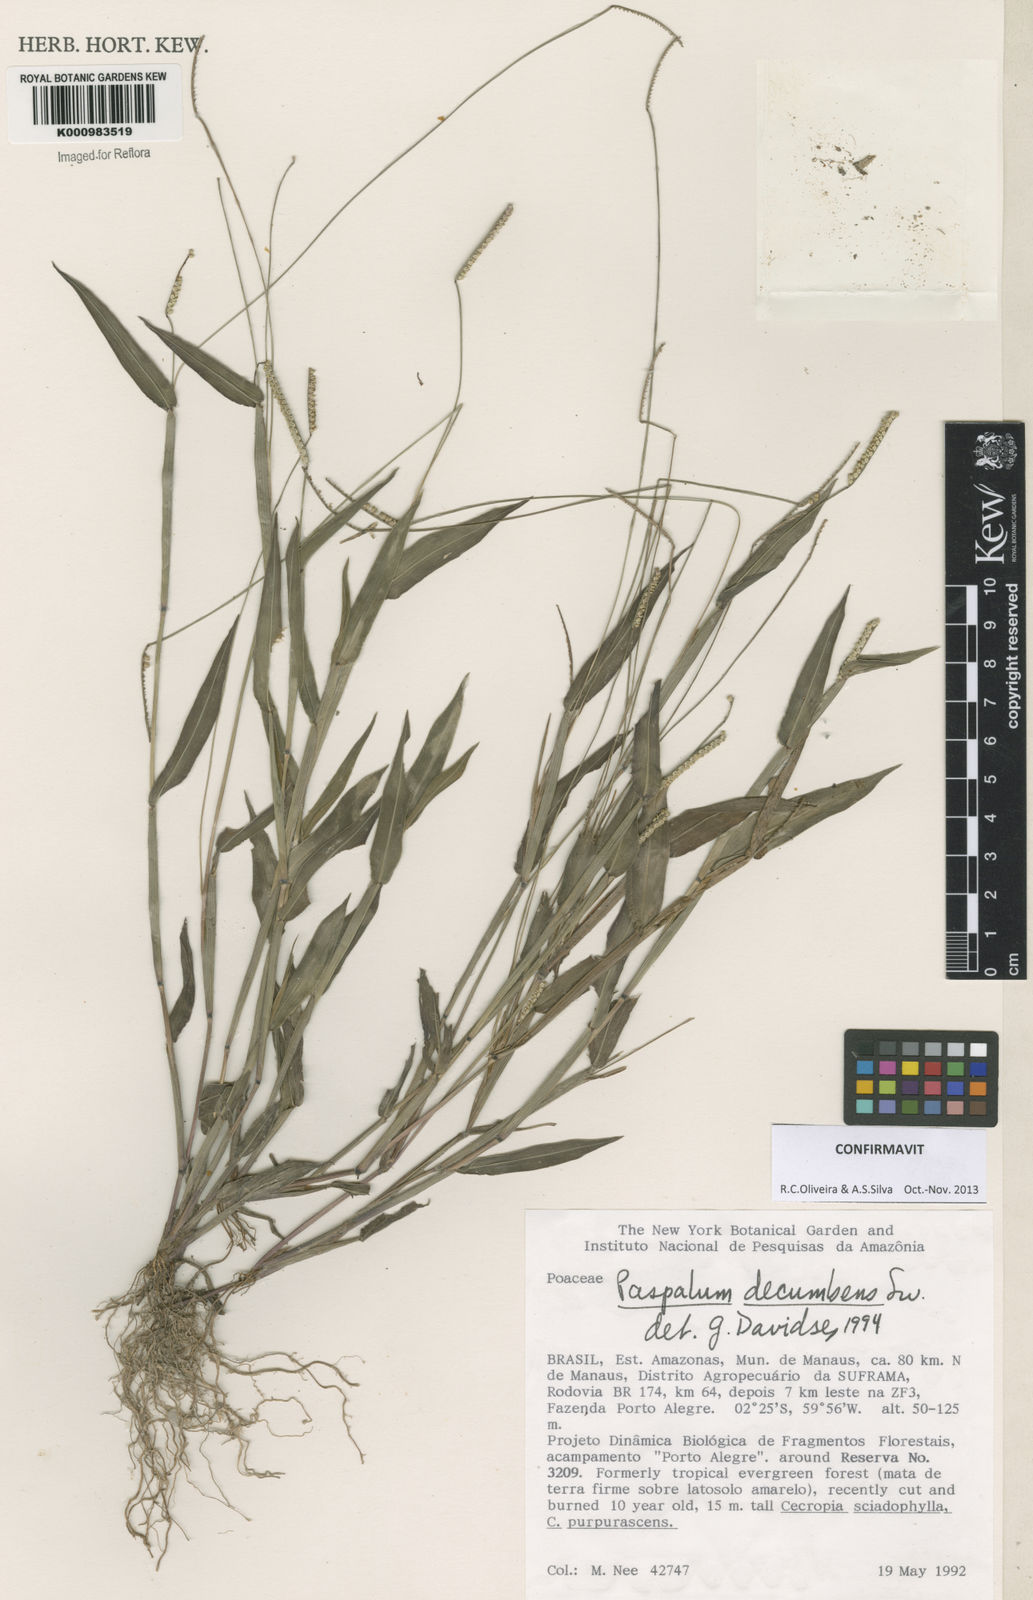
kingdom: Plantae
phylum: Tracheophyta
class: Liliopsida
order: Poales
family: Poaceae
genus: Paspalum
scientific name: Paspalum decumbens
